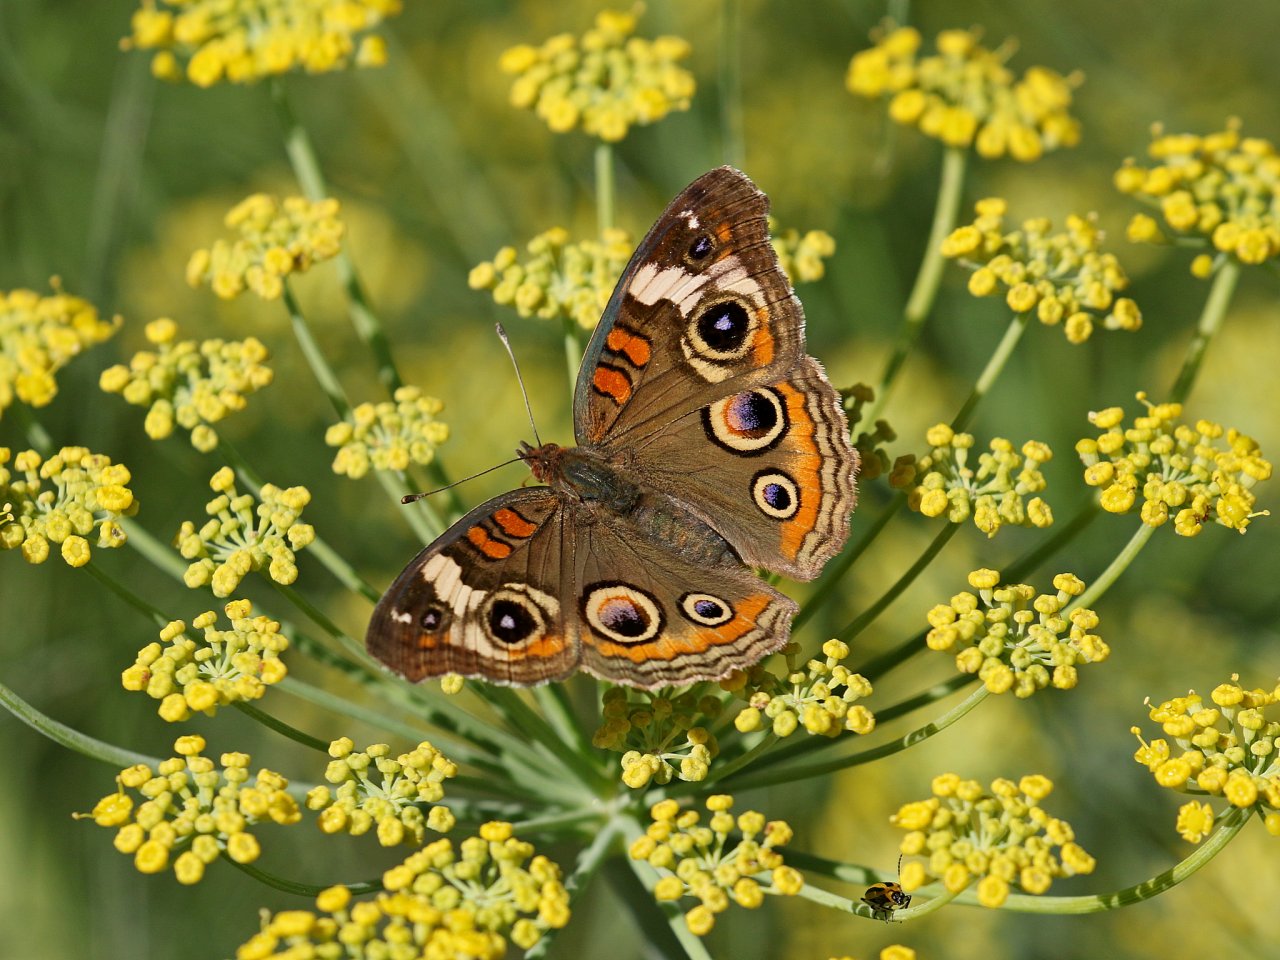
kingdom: Animalia
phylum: Arthropoda
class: Insecta
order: Lepidoptera
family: Nymphalidae
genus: Junonia
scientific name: Junonia coenia
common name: Common Buckeye
